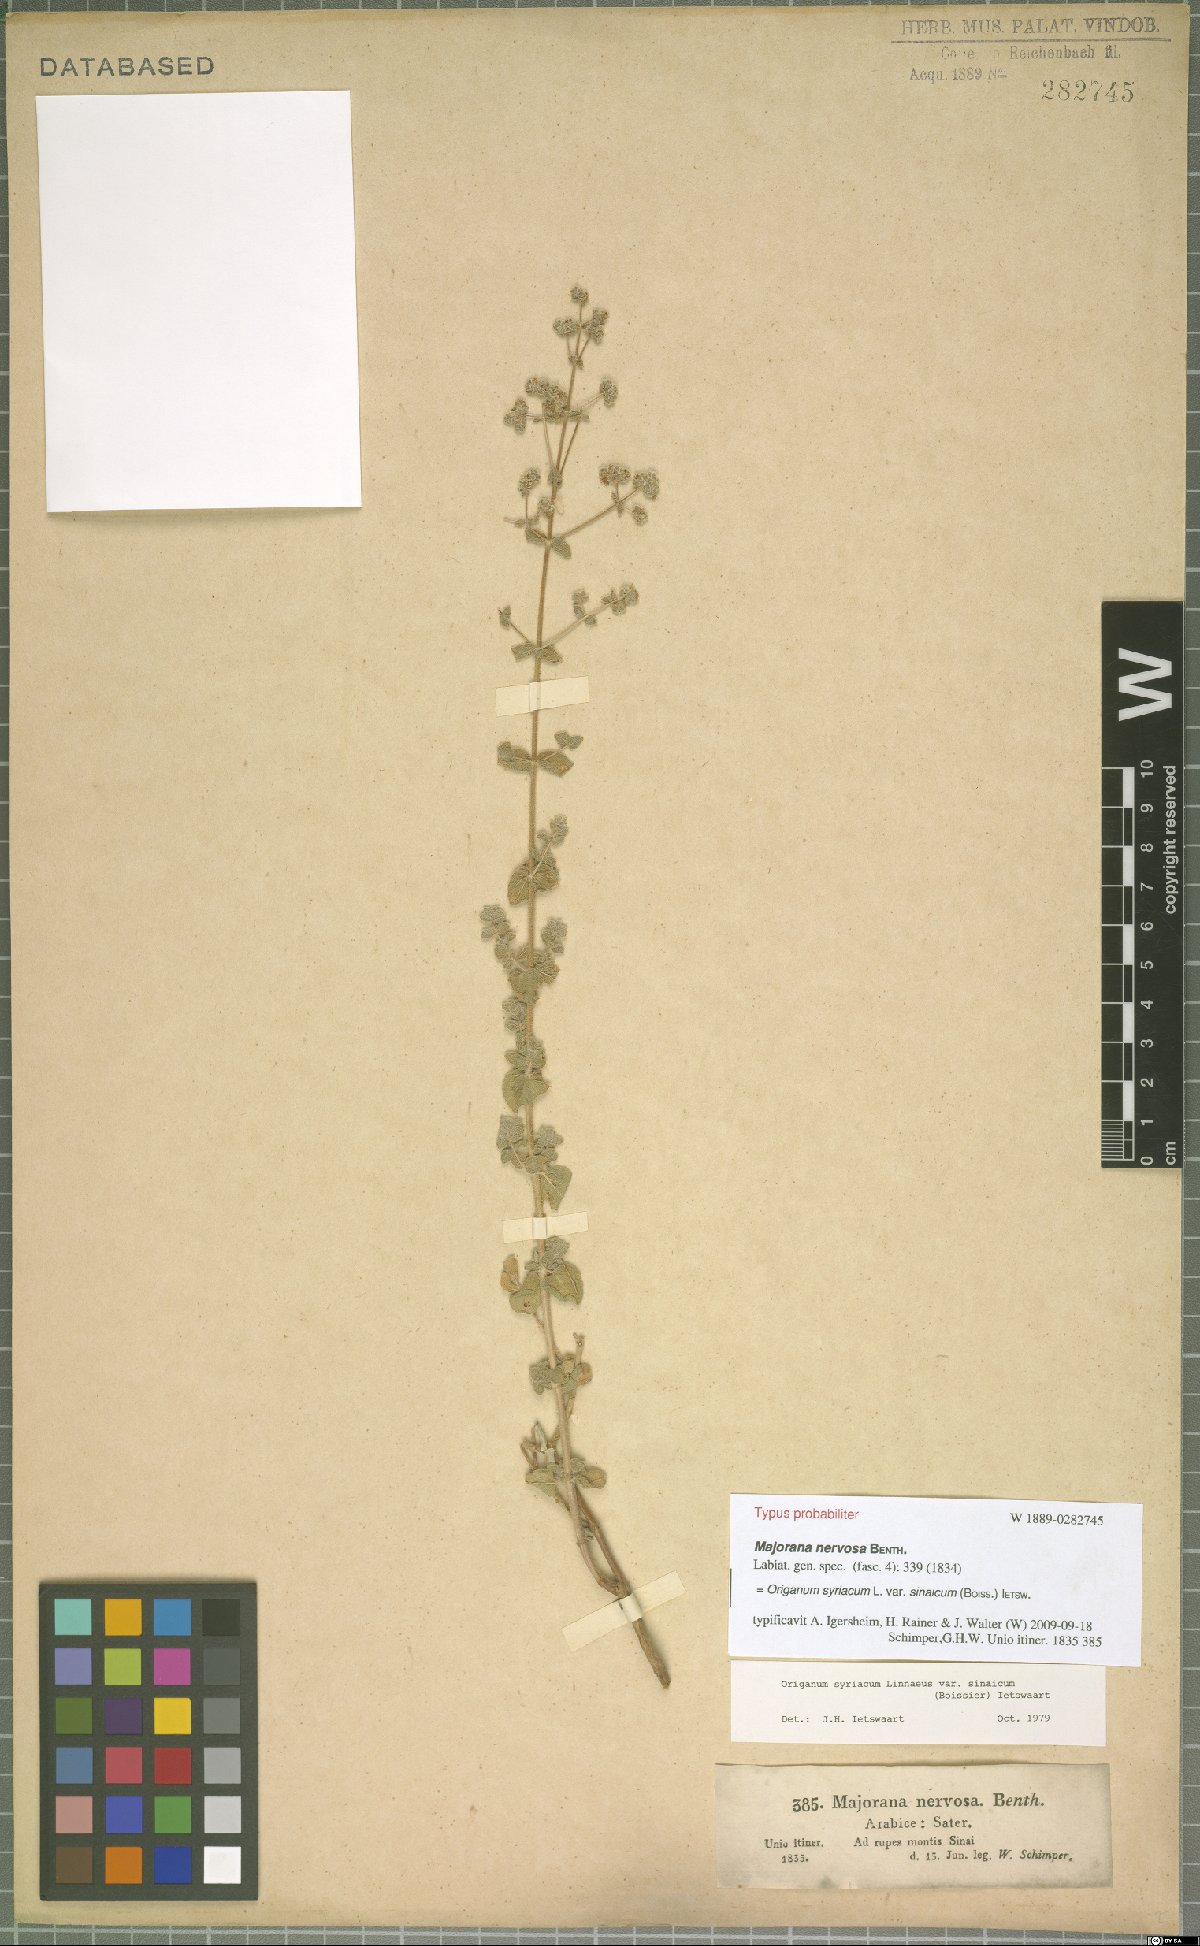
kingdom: Plantae
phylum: Tracheophyta
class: Magnoliopsida
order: Lamiales
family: Lamiaceae
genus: Origanum
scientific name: Origanum syriacum
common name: Biblical-hyssop
